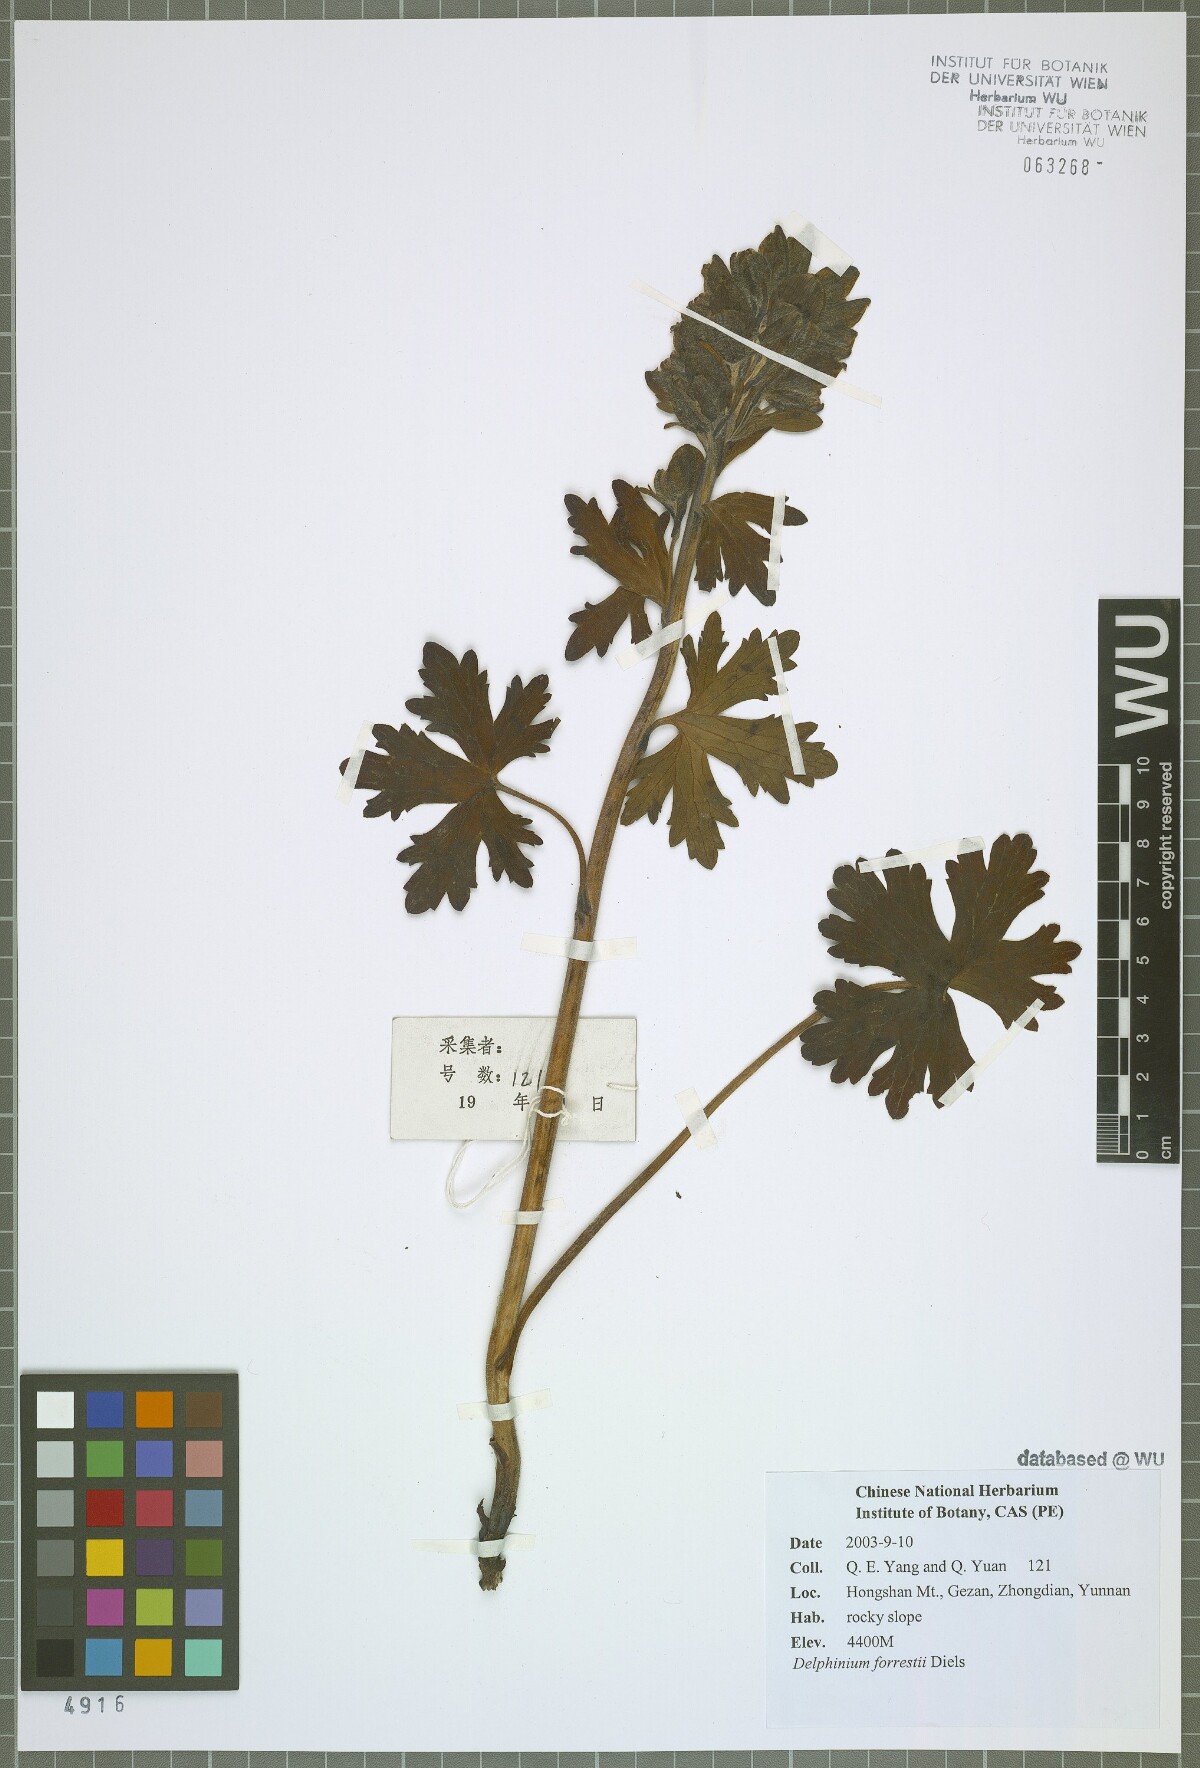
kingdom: Plantae
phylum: Tracheophyta
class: Magnoliopsida
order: Ranunculales
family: Ranunculaceae
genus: Delphinium
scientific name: Delphinium forrestii
